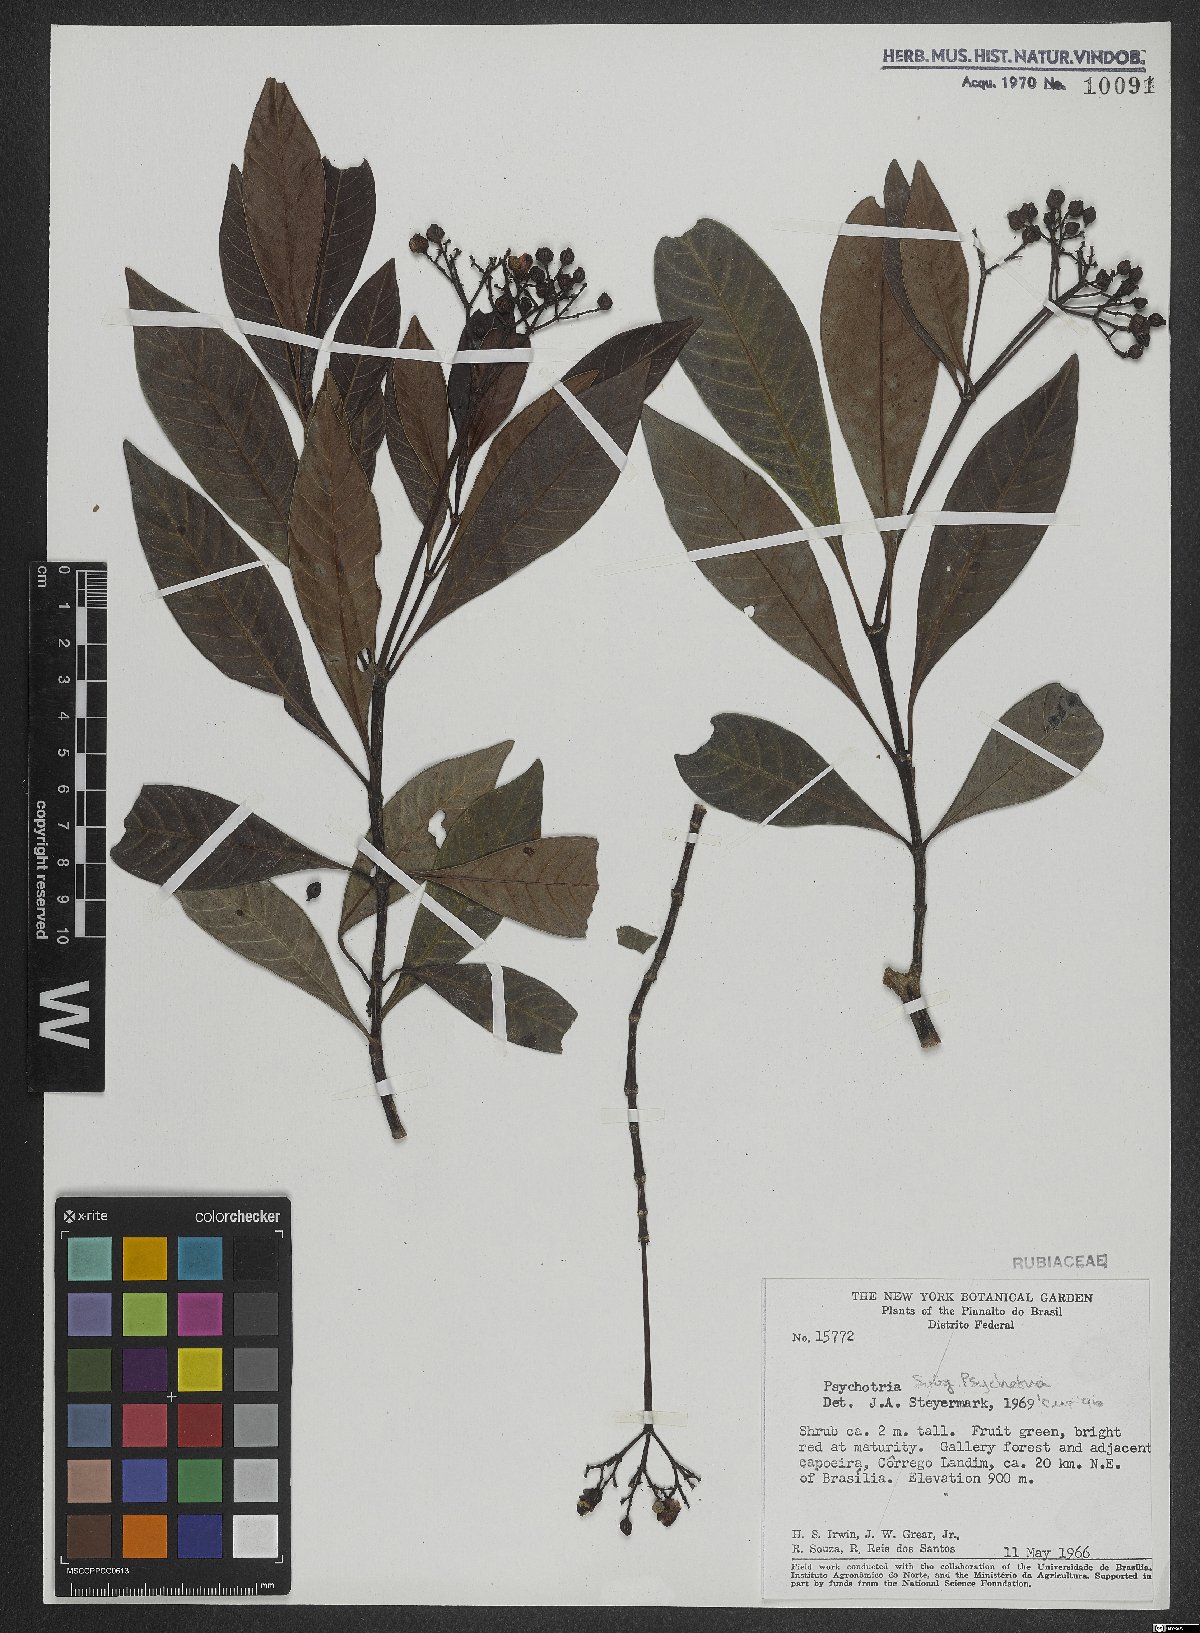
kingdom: Plantae
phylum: Tracheophyta
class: Magnoliopsida
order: Gentianales
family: Rubiaceae
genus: Psychotria
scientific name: Psychotria
